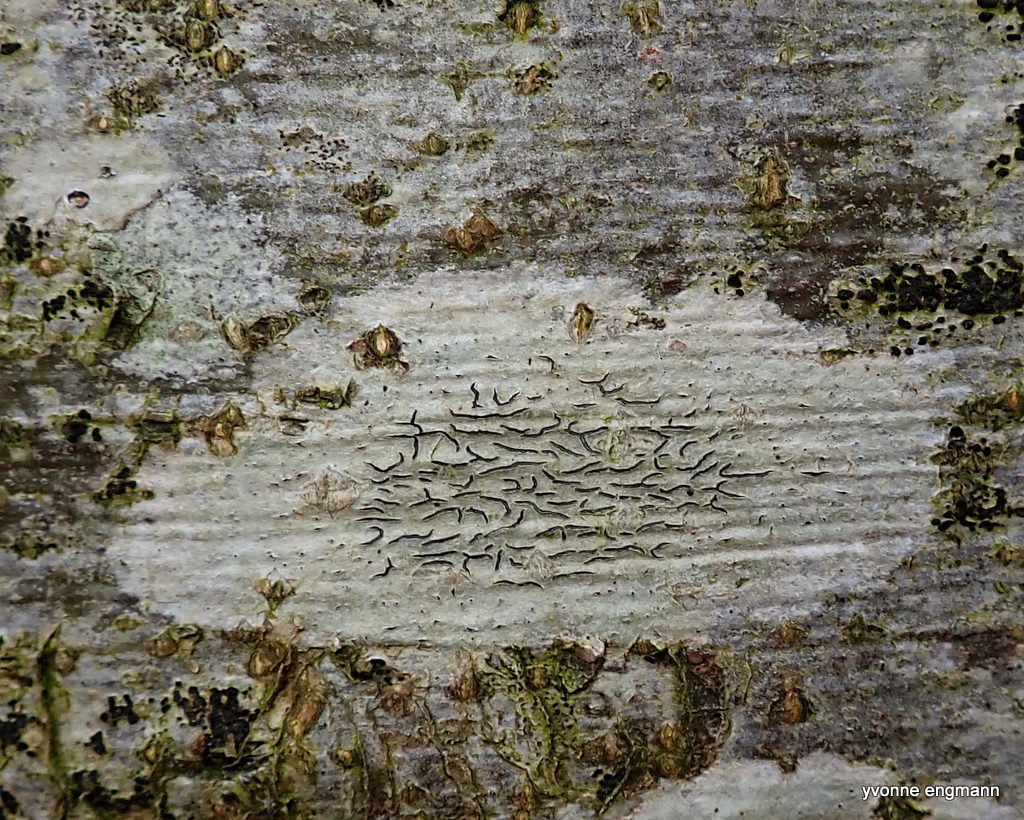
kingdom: Fungi
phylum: Ascomycota
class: Lecanoromycetes
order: Ostropales
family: Graphidaceae
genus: Graphis
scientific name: Graphis scripta
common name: almindelig skriftlav
